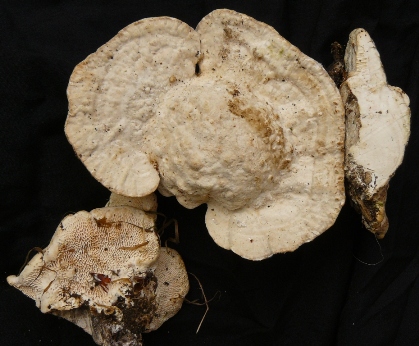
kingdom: Fungi
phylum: Basidiomycota
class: Agaricomycetes
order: Polyporales
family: Polyporaceae
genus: Trametes
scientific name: Trametes gibbosa
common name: puklet læderporesvamp
